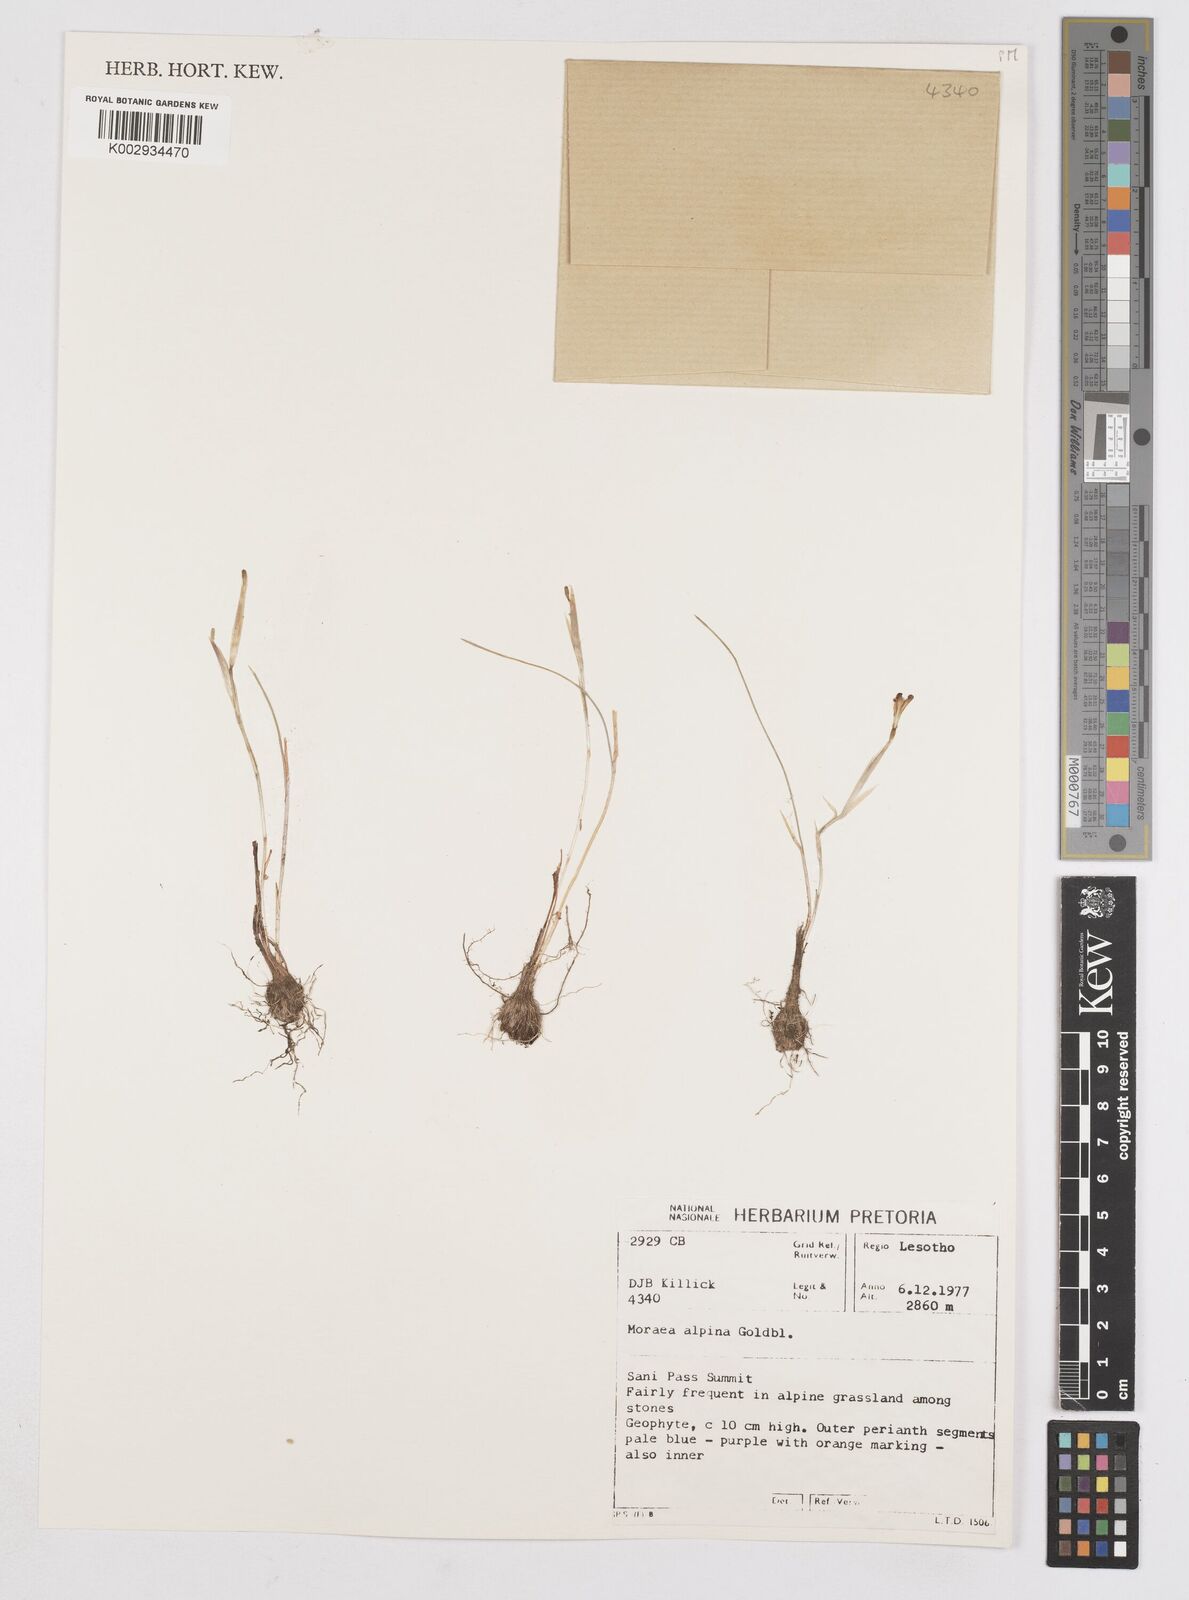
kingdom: Plantae
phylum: Tracheophyta
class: Liliopsida
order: Asparagales
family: Iridaceae
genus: Moraea
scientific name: Moraea alpina
